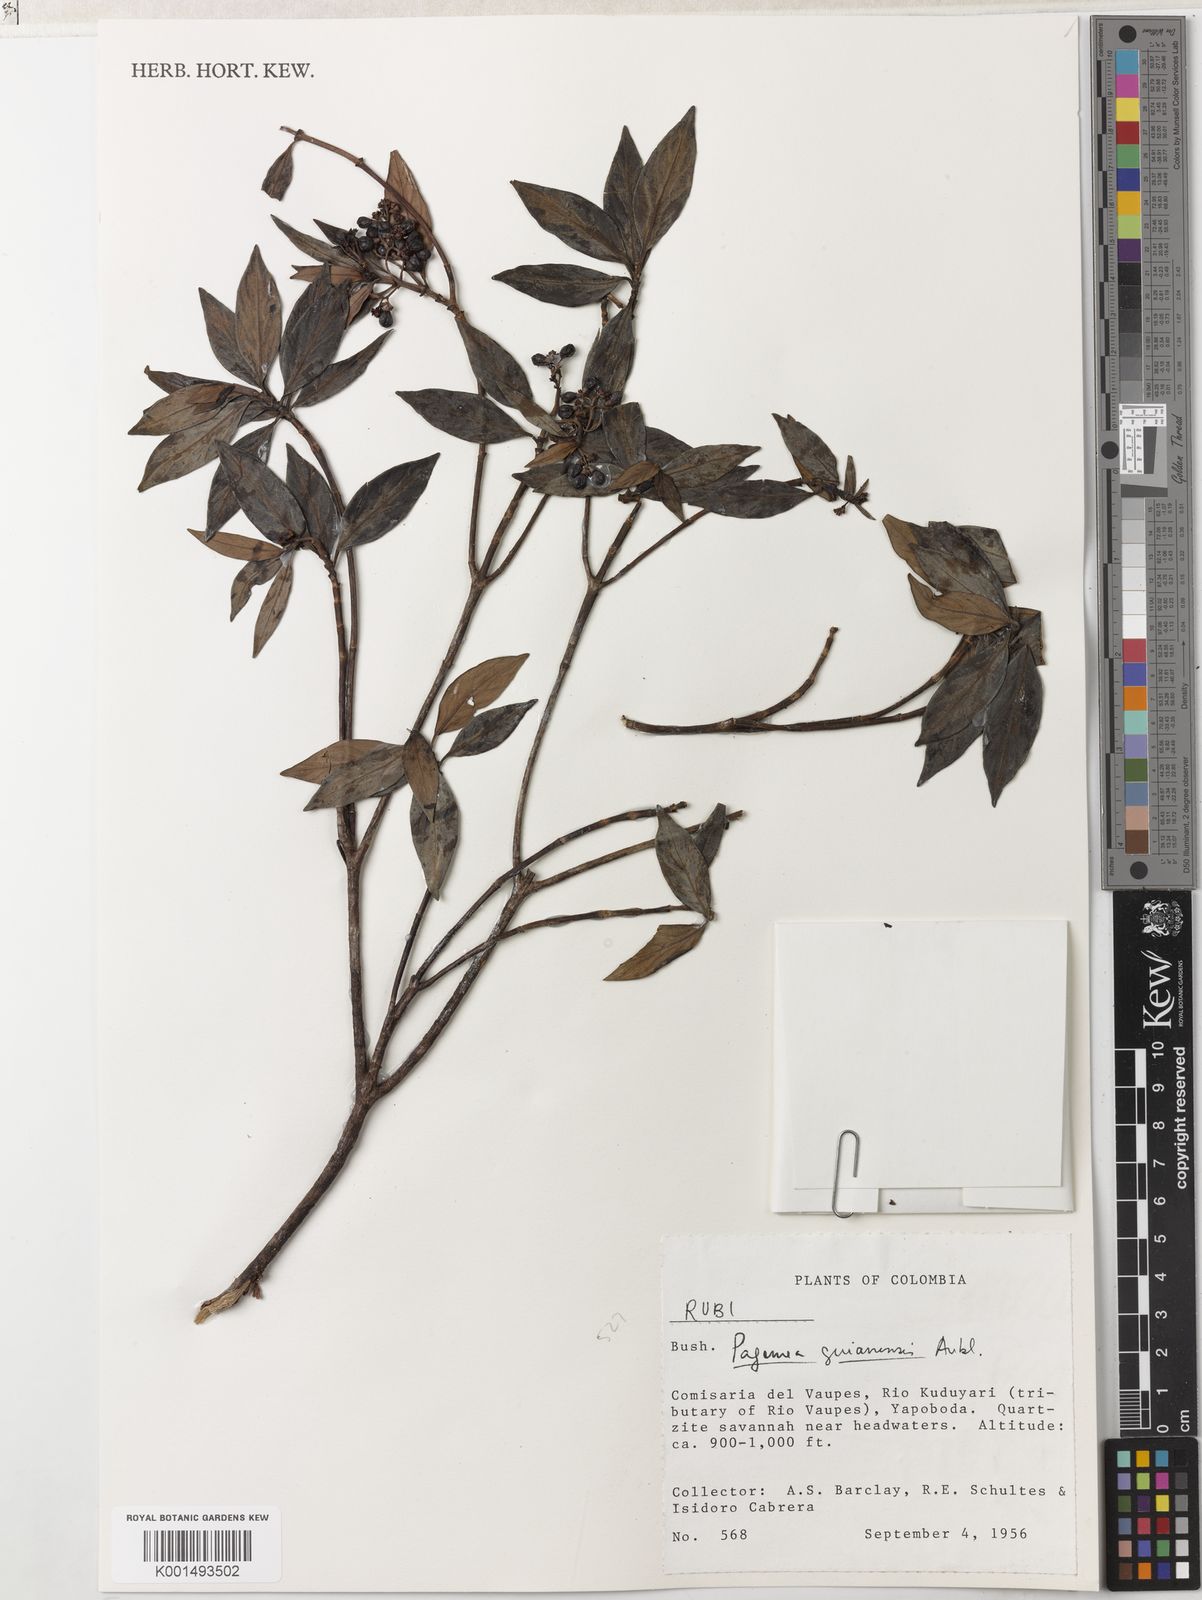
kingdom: Plantae
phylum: Tracheophyta
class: Magnoliopsida
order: Gentianales
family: Rubiaceae
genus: Pagamea
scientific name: Pagamea guianensis
